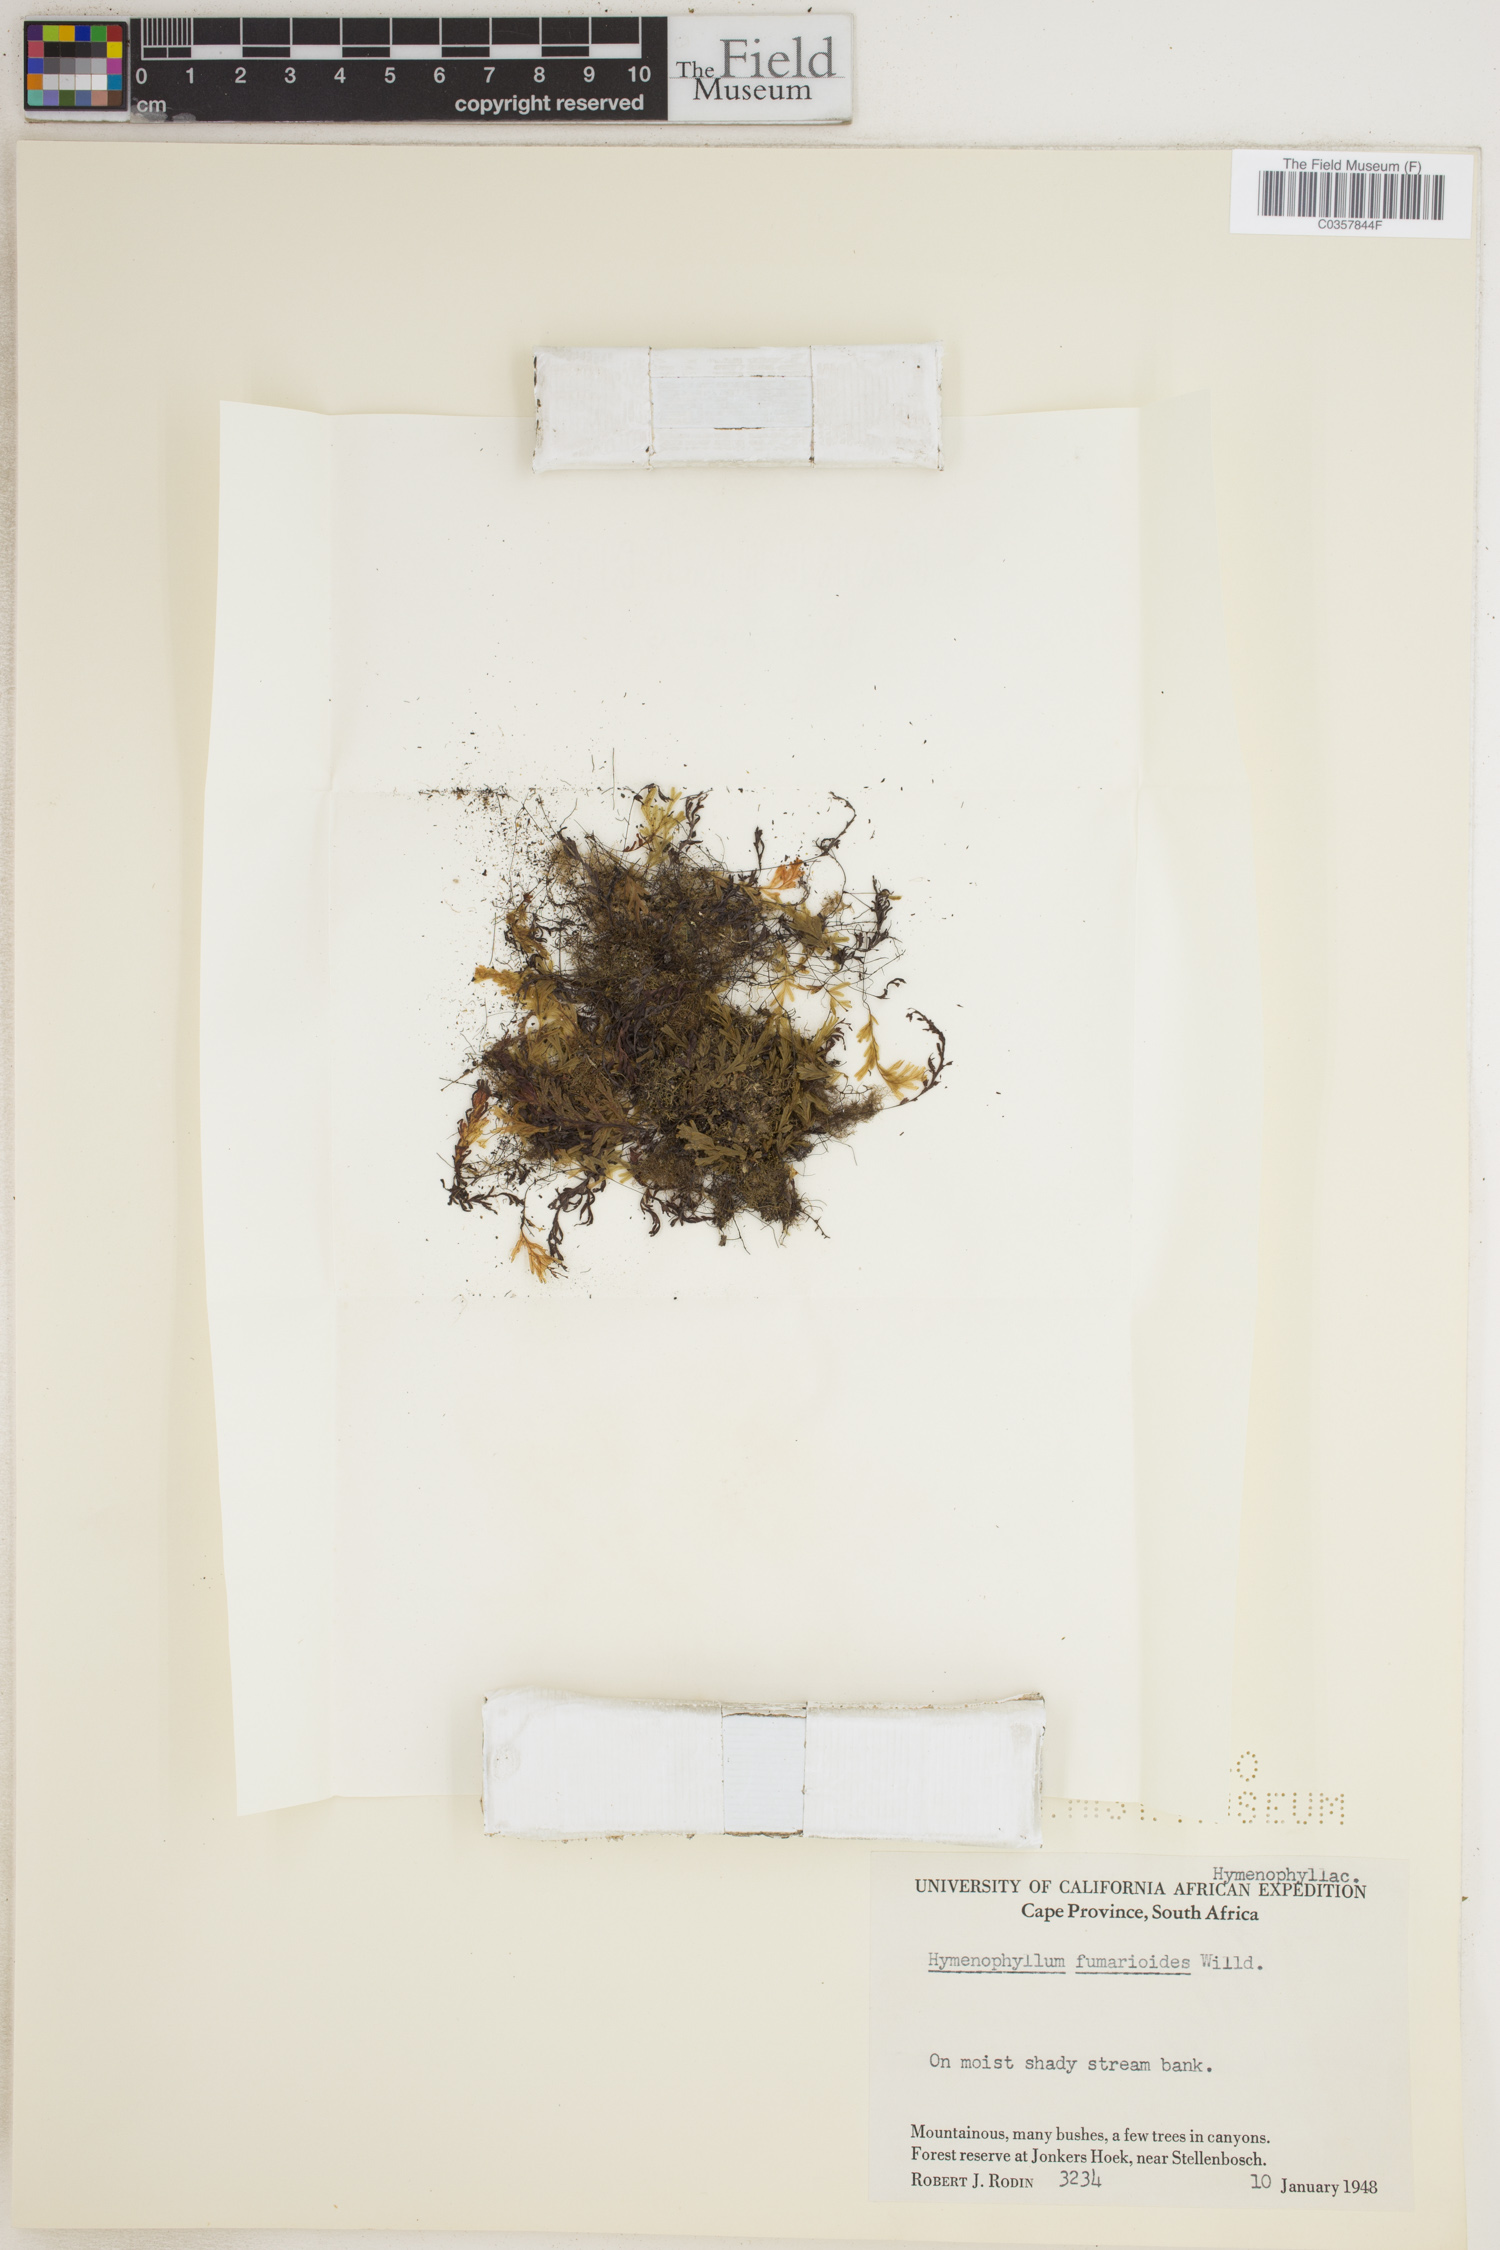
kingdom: Plantae
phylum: Tracheophyta
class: Polypodiopsida
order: Hymenophyllales
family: Hymenophyllaceae
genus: Hymenophyllum
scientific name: Hymenophyllum fumarioides
